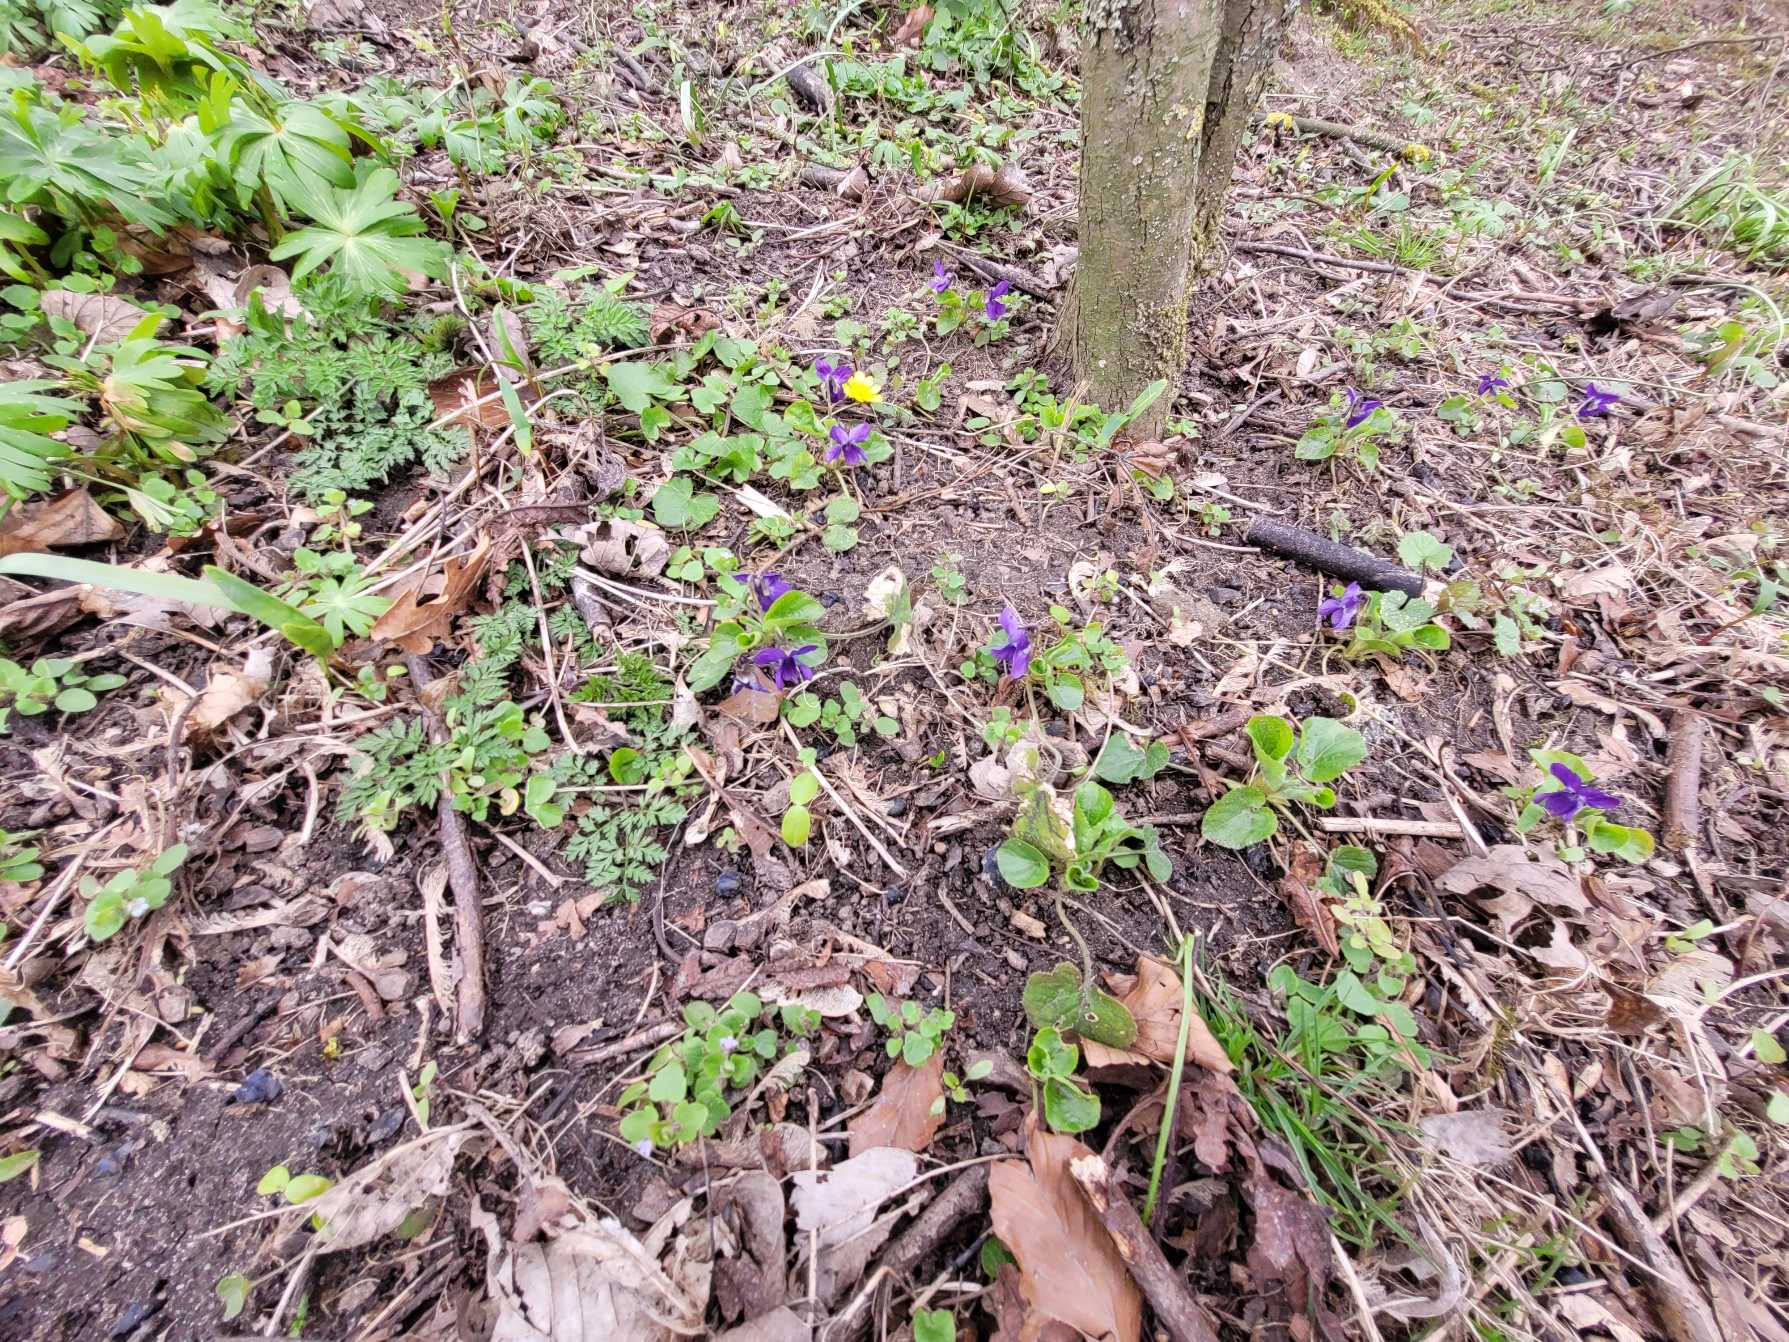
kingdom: Plantae
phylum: Tracheophyta
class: Magnoliopsida
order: Malpighiales
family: Violaceae
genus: Viola
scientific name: Viola odorata
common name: Marts-viol
